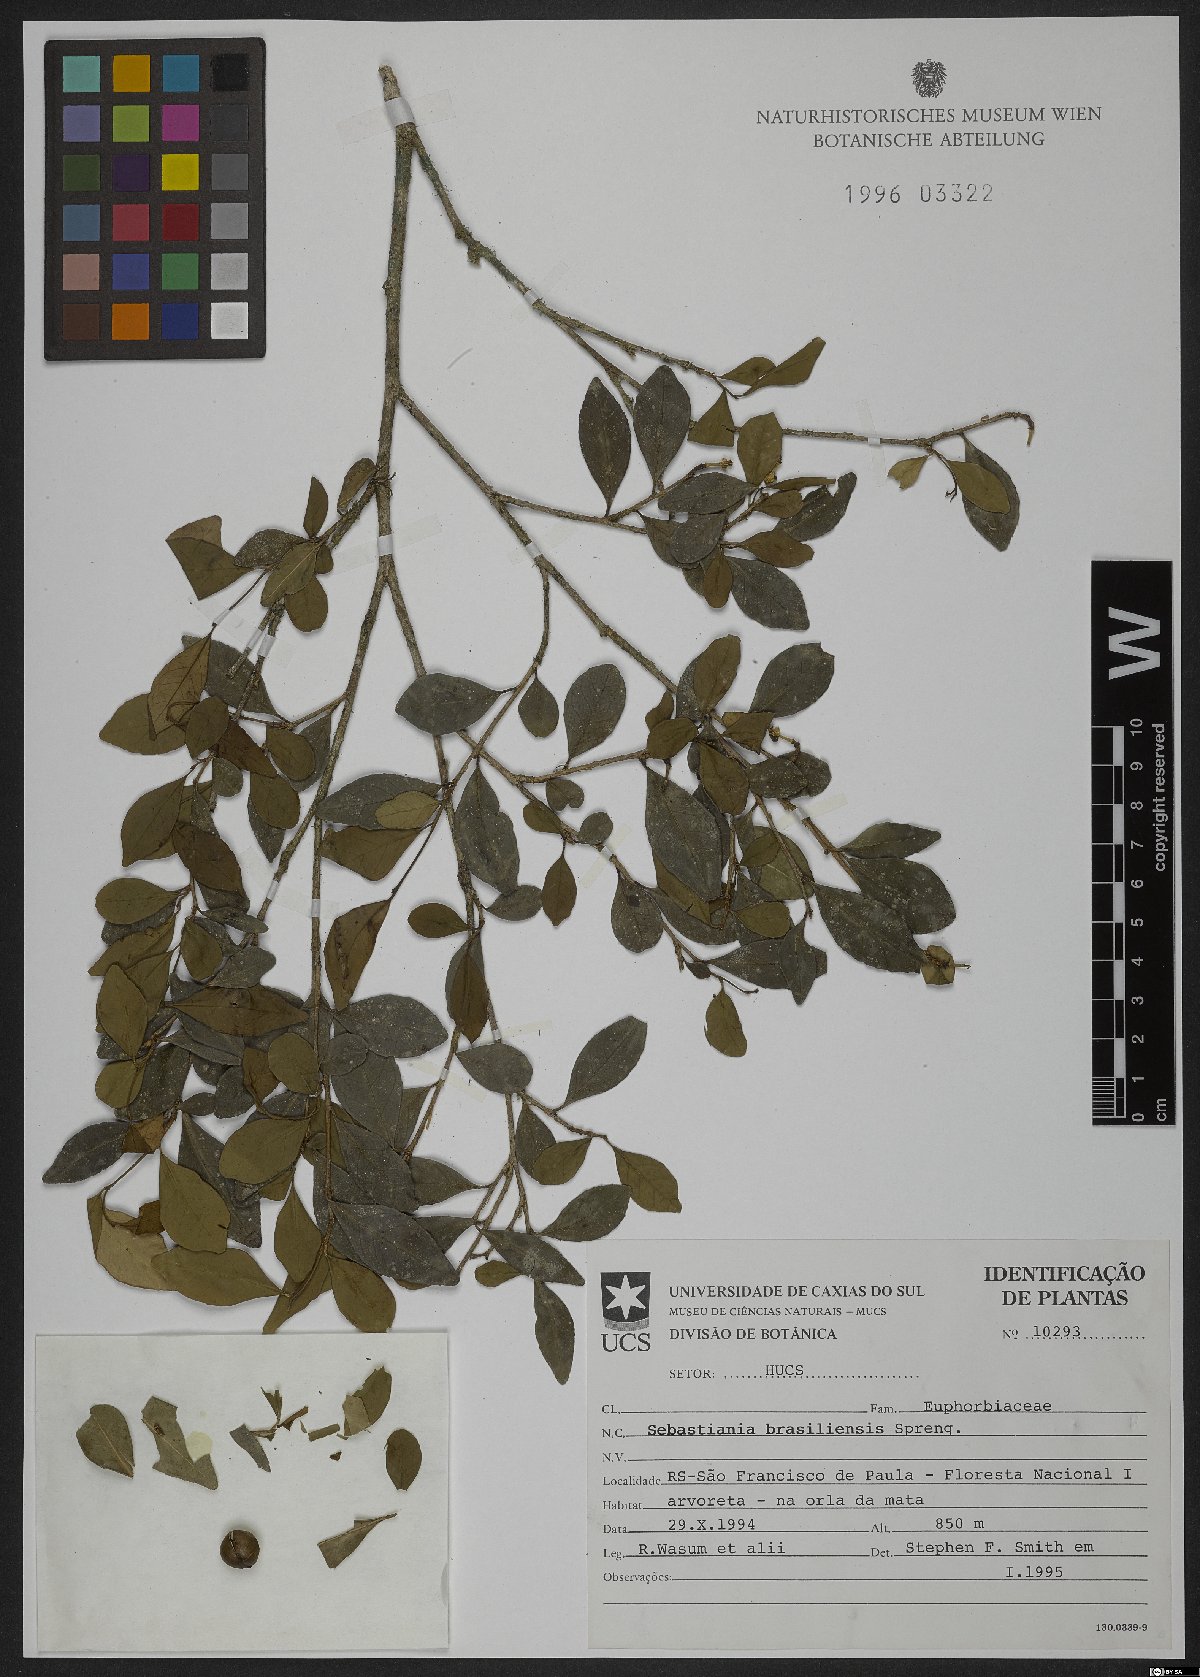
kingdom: Plantae
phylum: Tracheophyta
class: Magnoliopsida
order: Malpighiales
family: Euphorbiaceae
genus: Sebastiania
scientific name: Sebastiania brasiliensis
